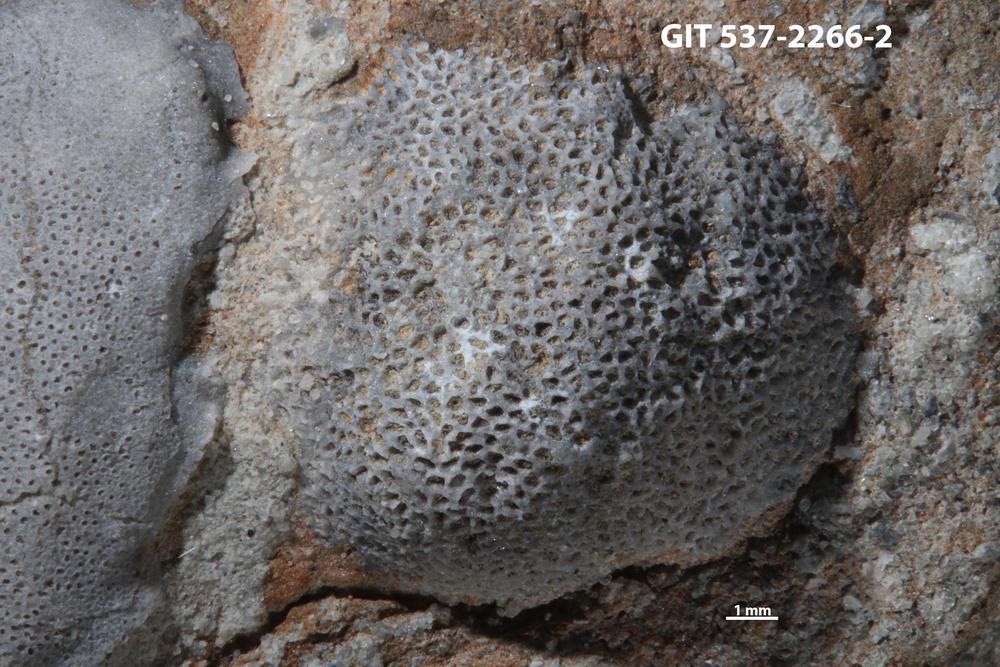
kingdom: Animalia
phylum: Bryozoa
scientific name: Bryozoa
